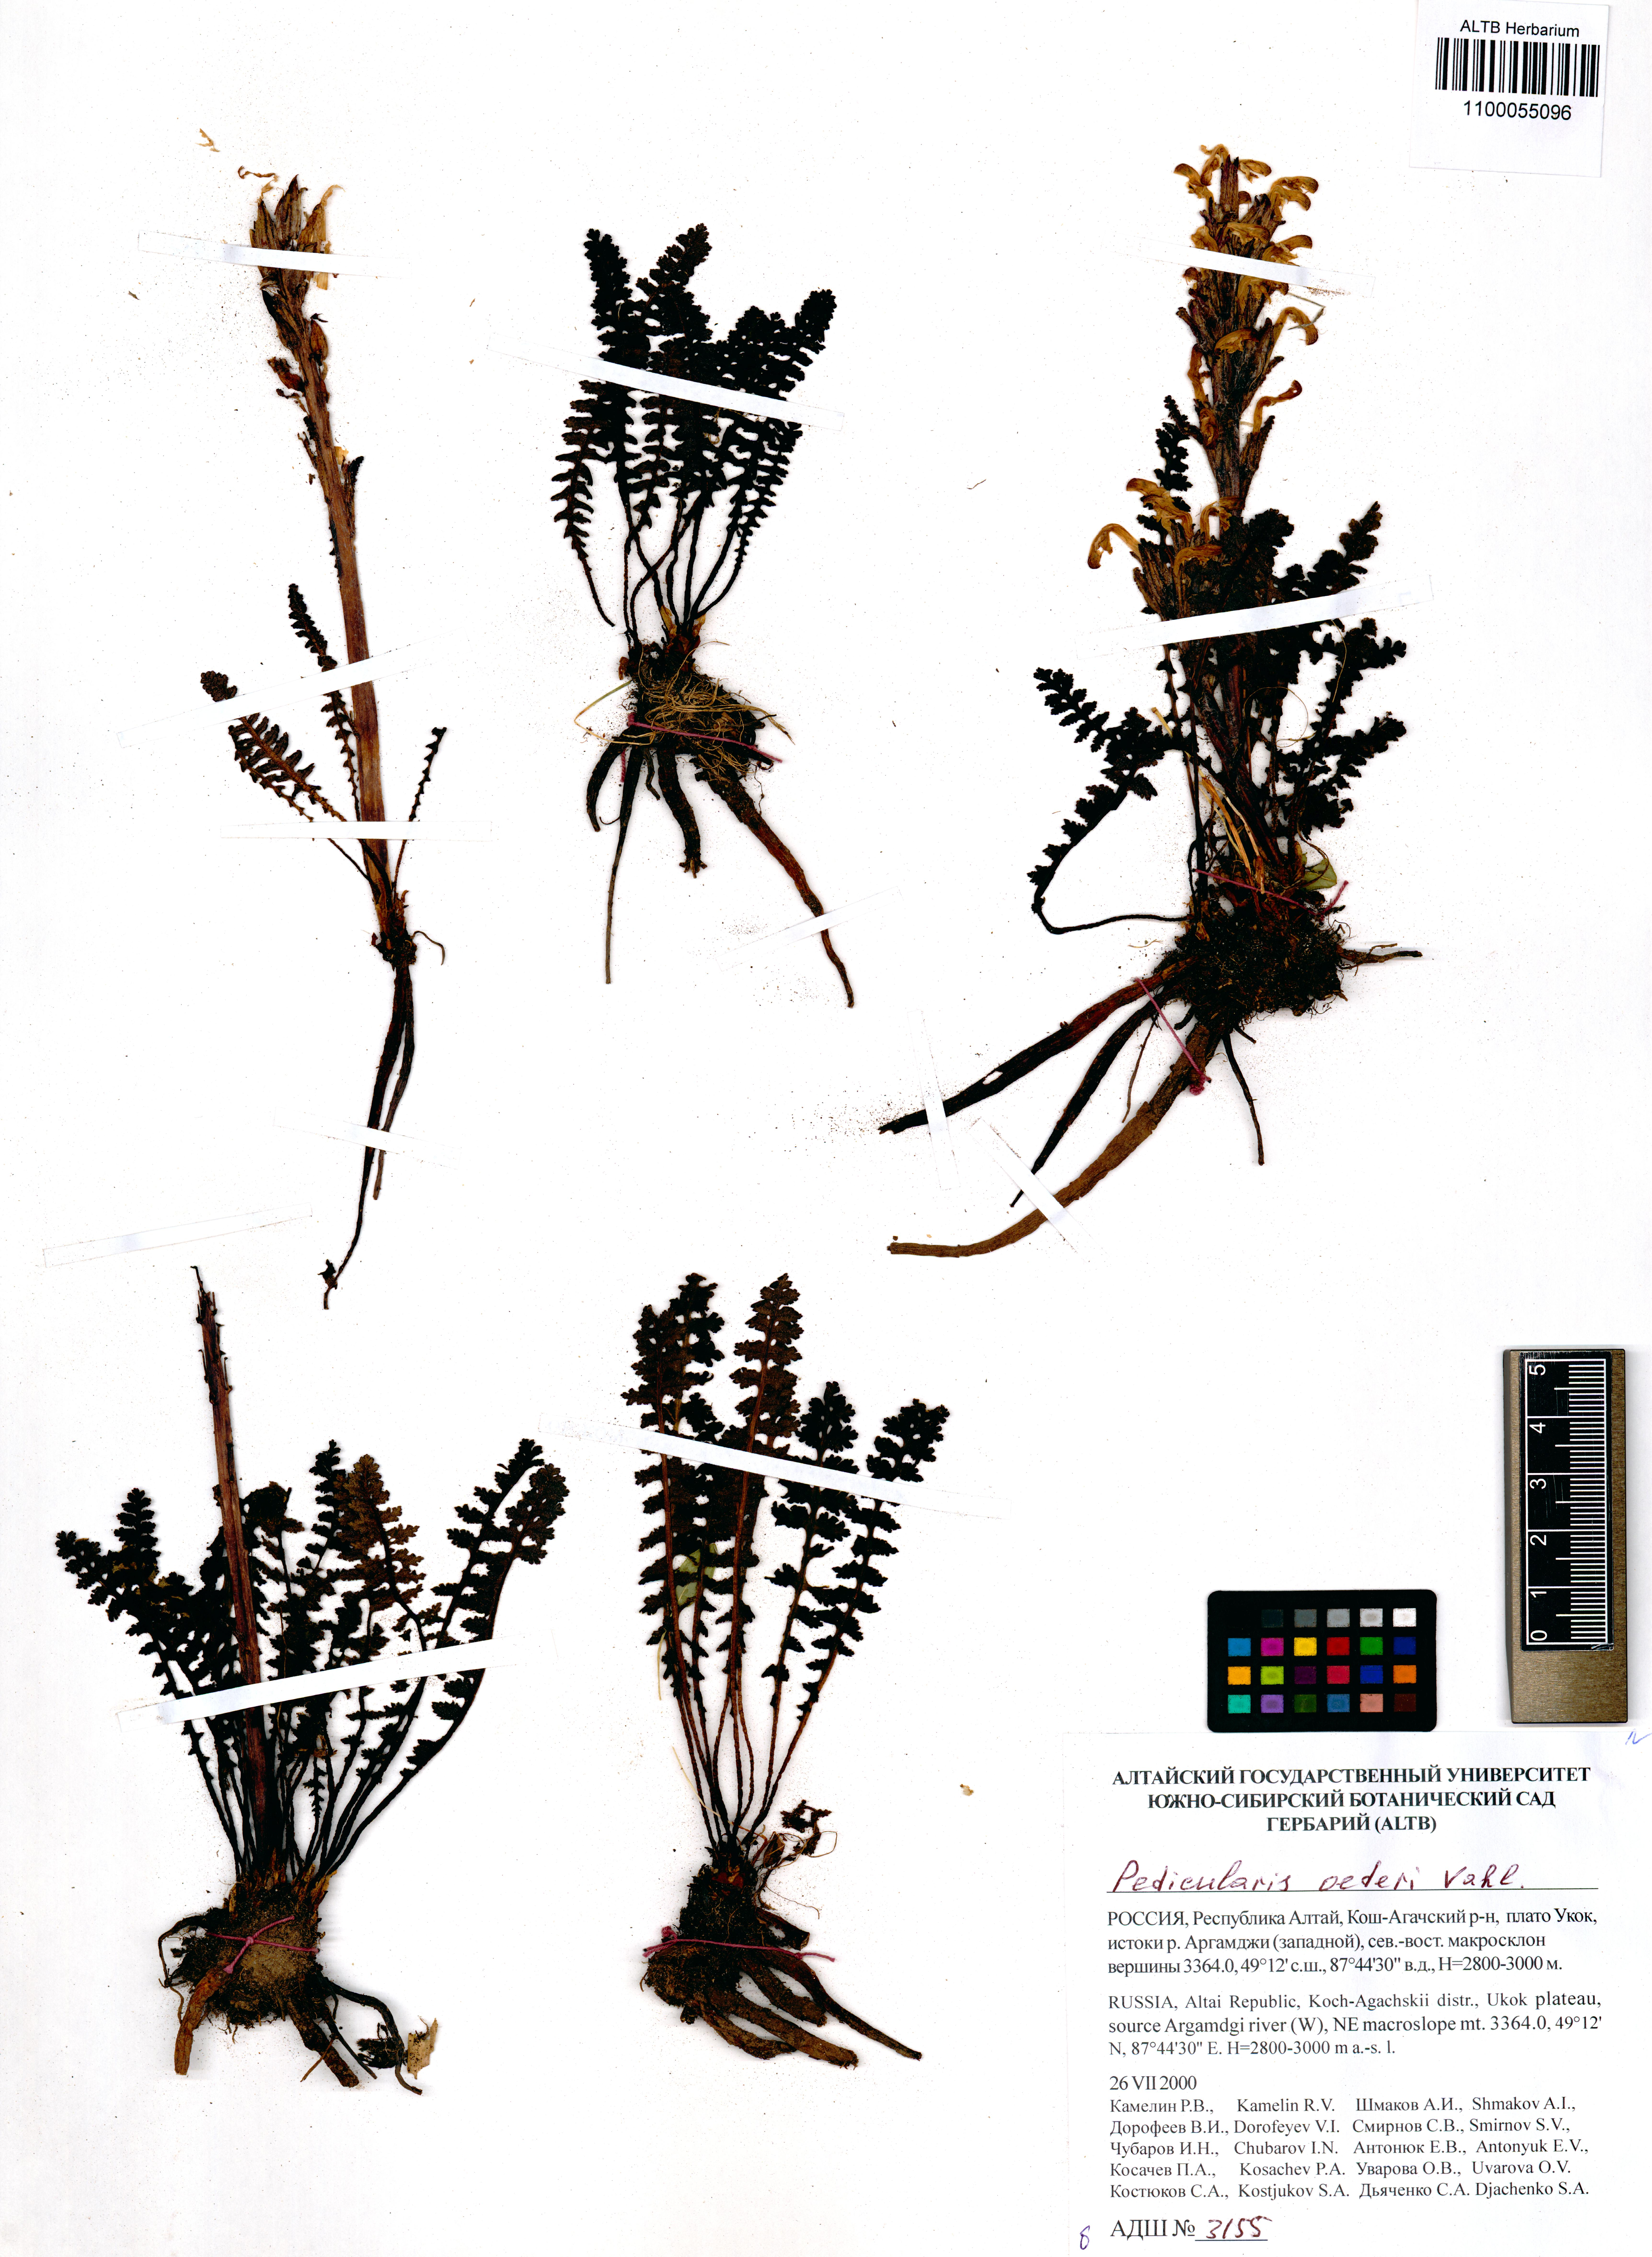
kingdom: Plantae
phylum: Tracheophyta
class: Magnoliopsida
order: Lamiales
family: Orobanchaceae
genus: Pedicularis
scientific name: Pedicularis oederi
